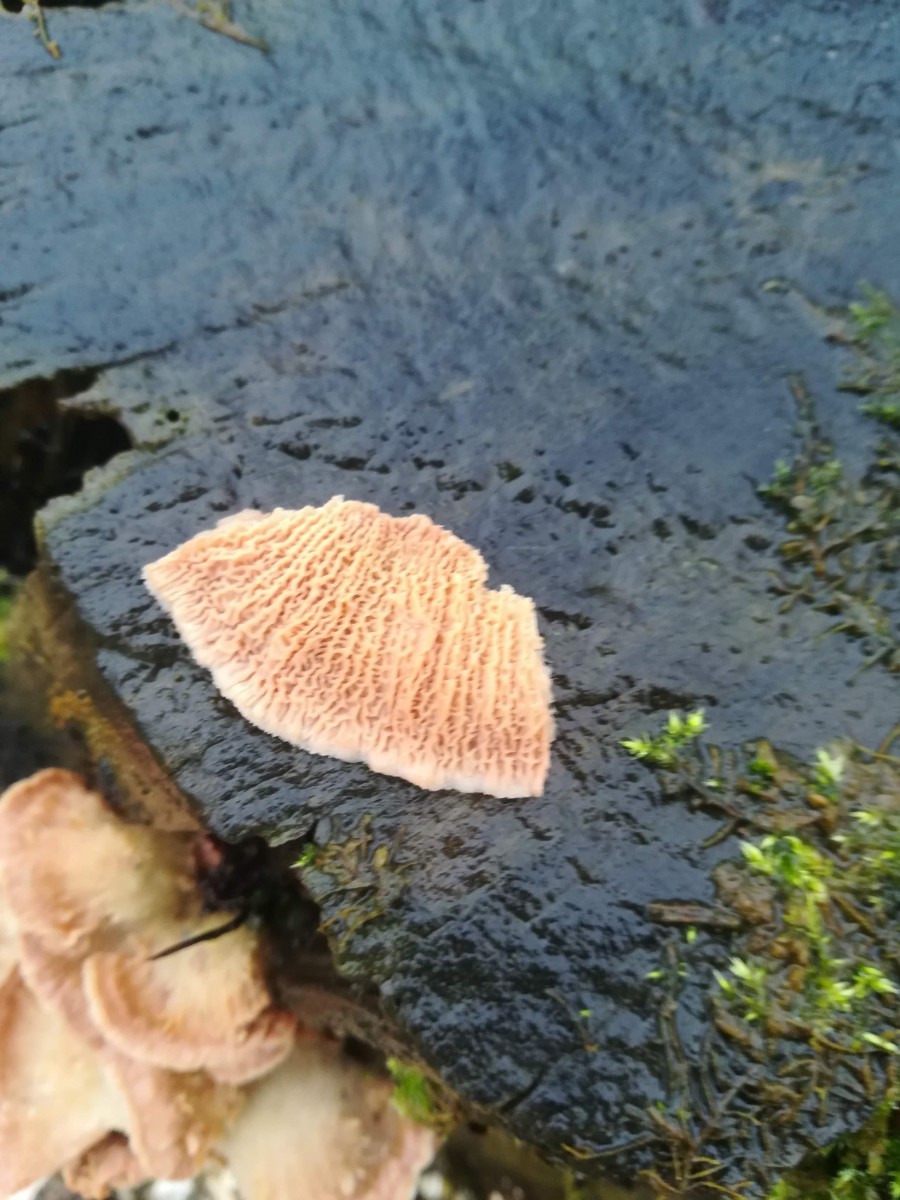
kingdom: Fungi
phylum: Basidiomycota
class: Agaricomycetes
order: Polyporales
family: Meruliaceae
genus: Phlebia
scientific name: Phlebia tremellosa
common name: bævrende åresvamp
